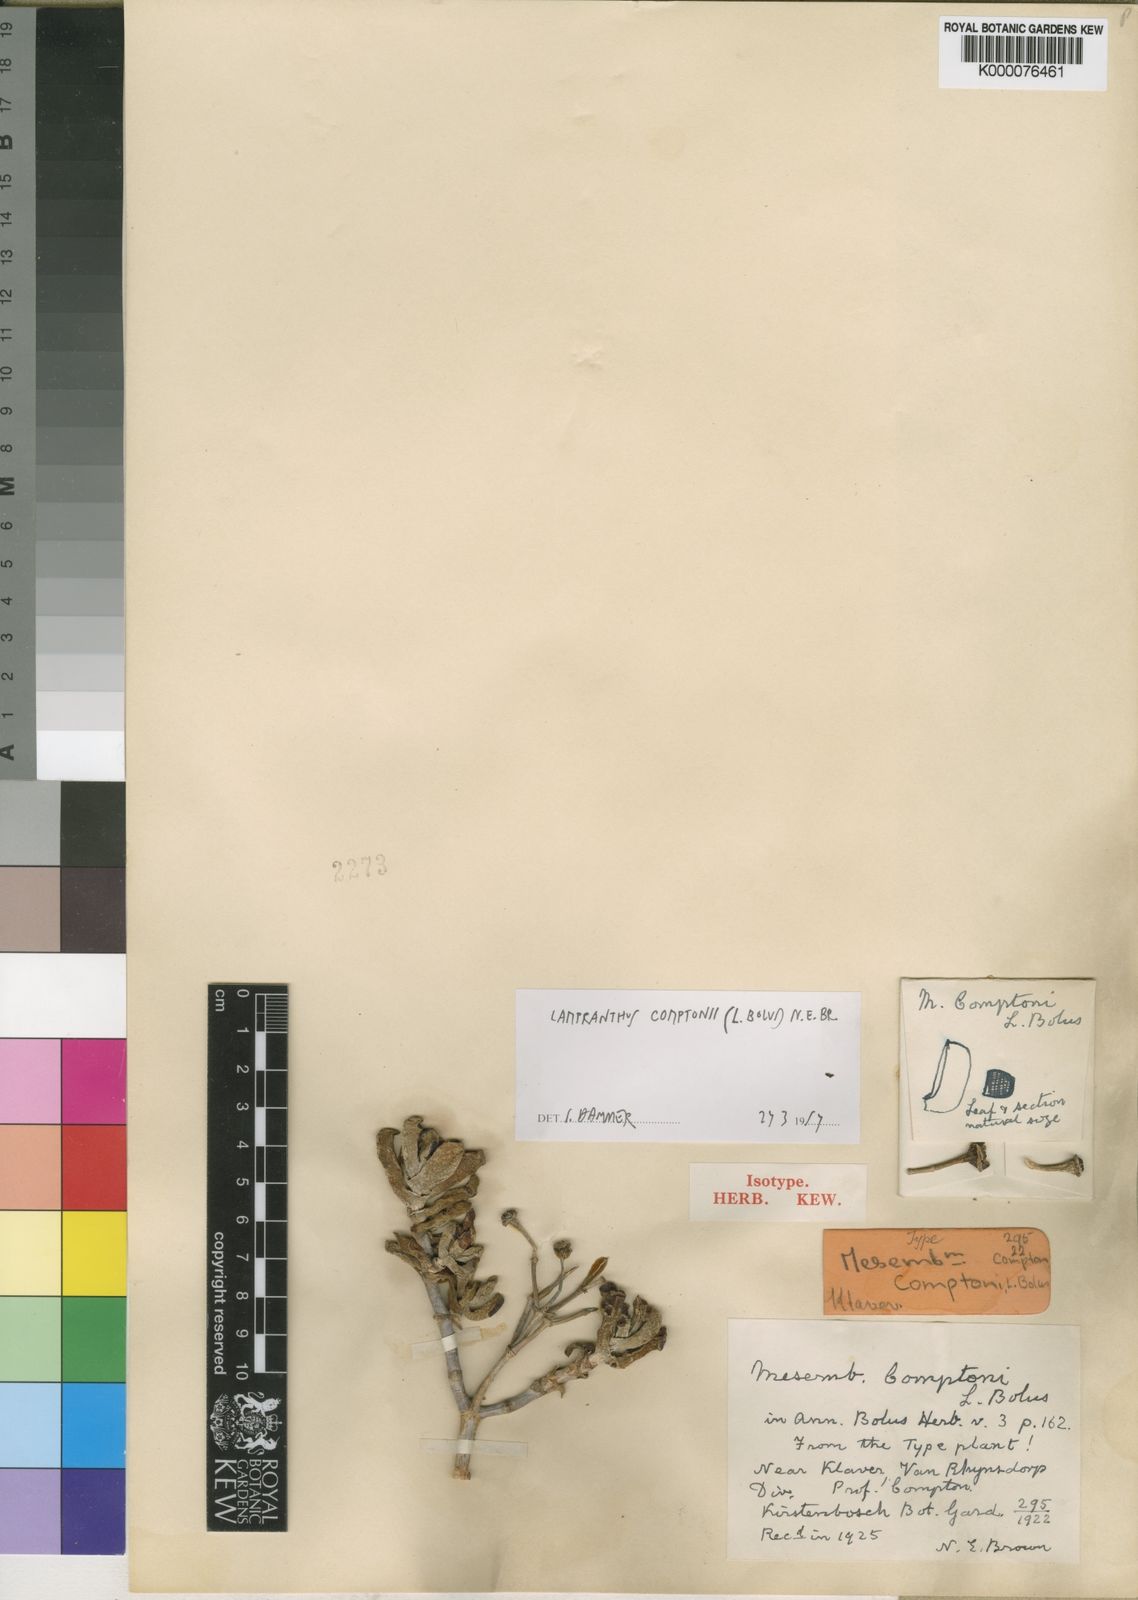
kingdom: Plantae
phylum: Tracheophyta
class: Magnoliopsida
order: Caryophyllales
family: Aizoaceae
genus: Oscularia
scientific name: Oscularia comptonii
